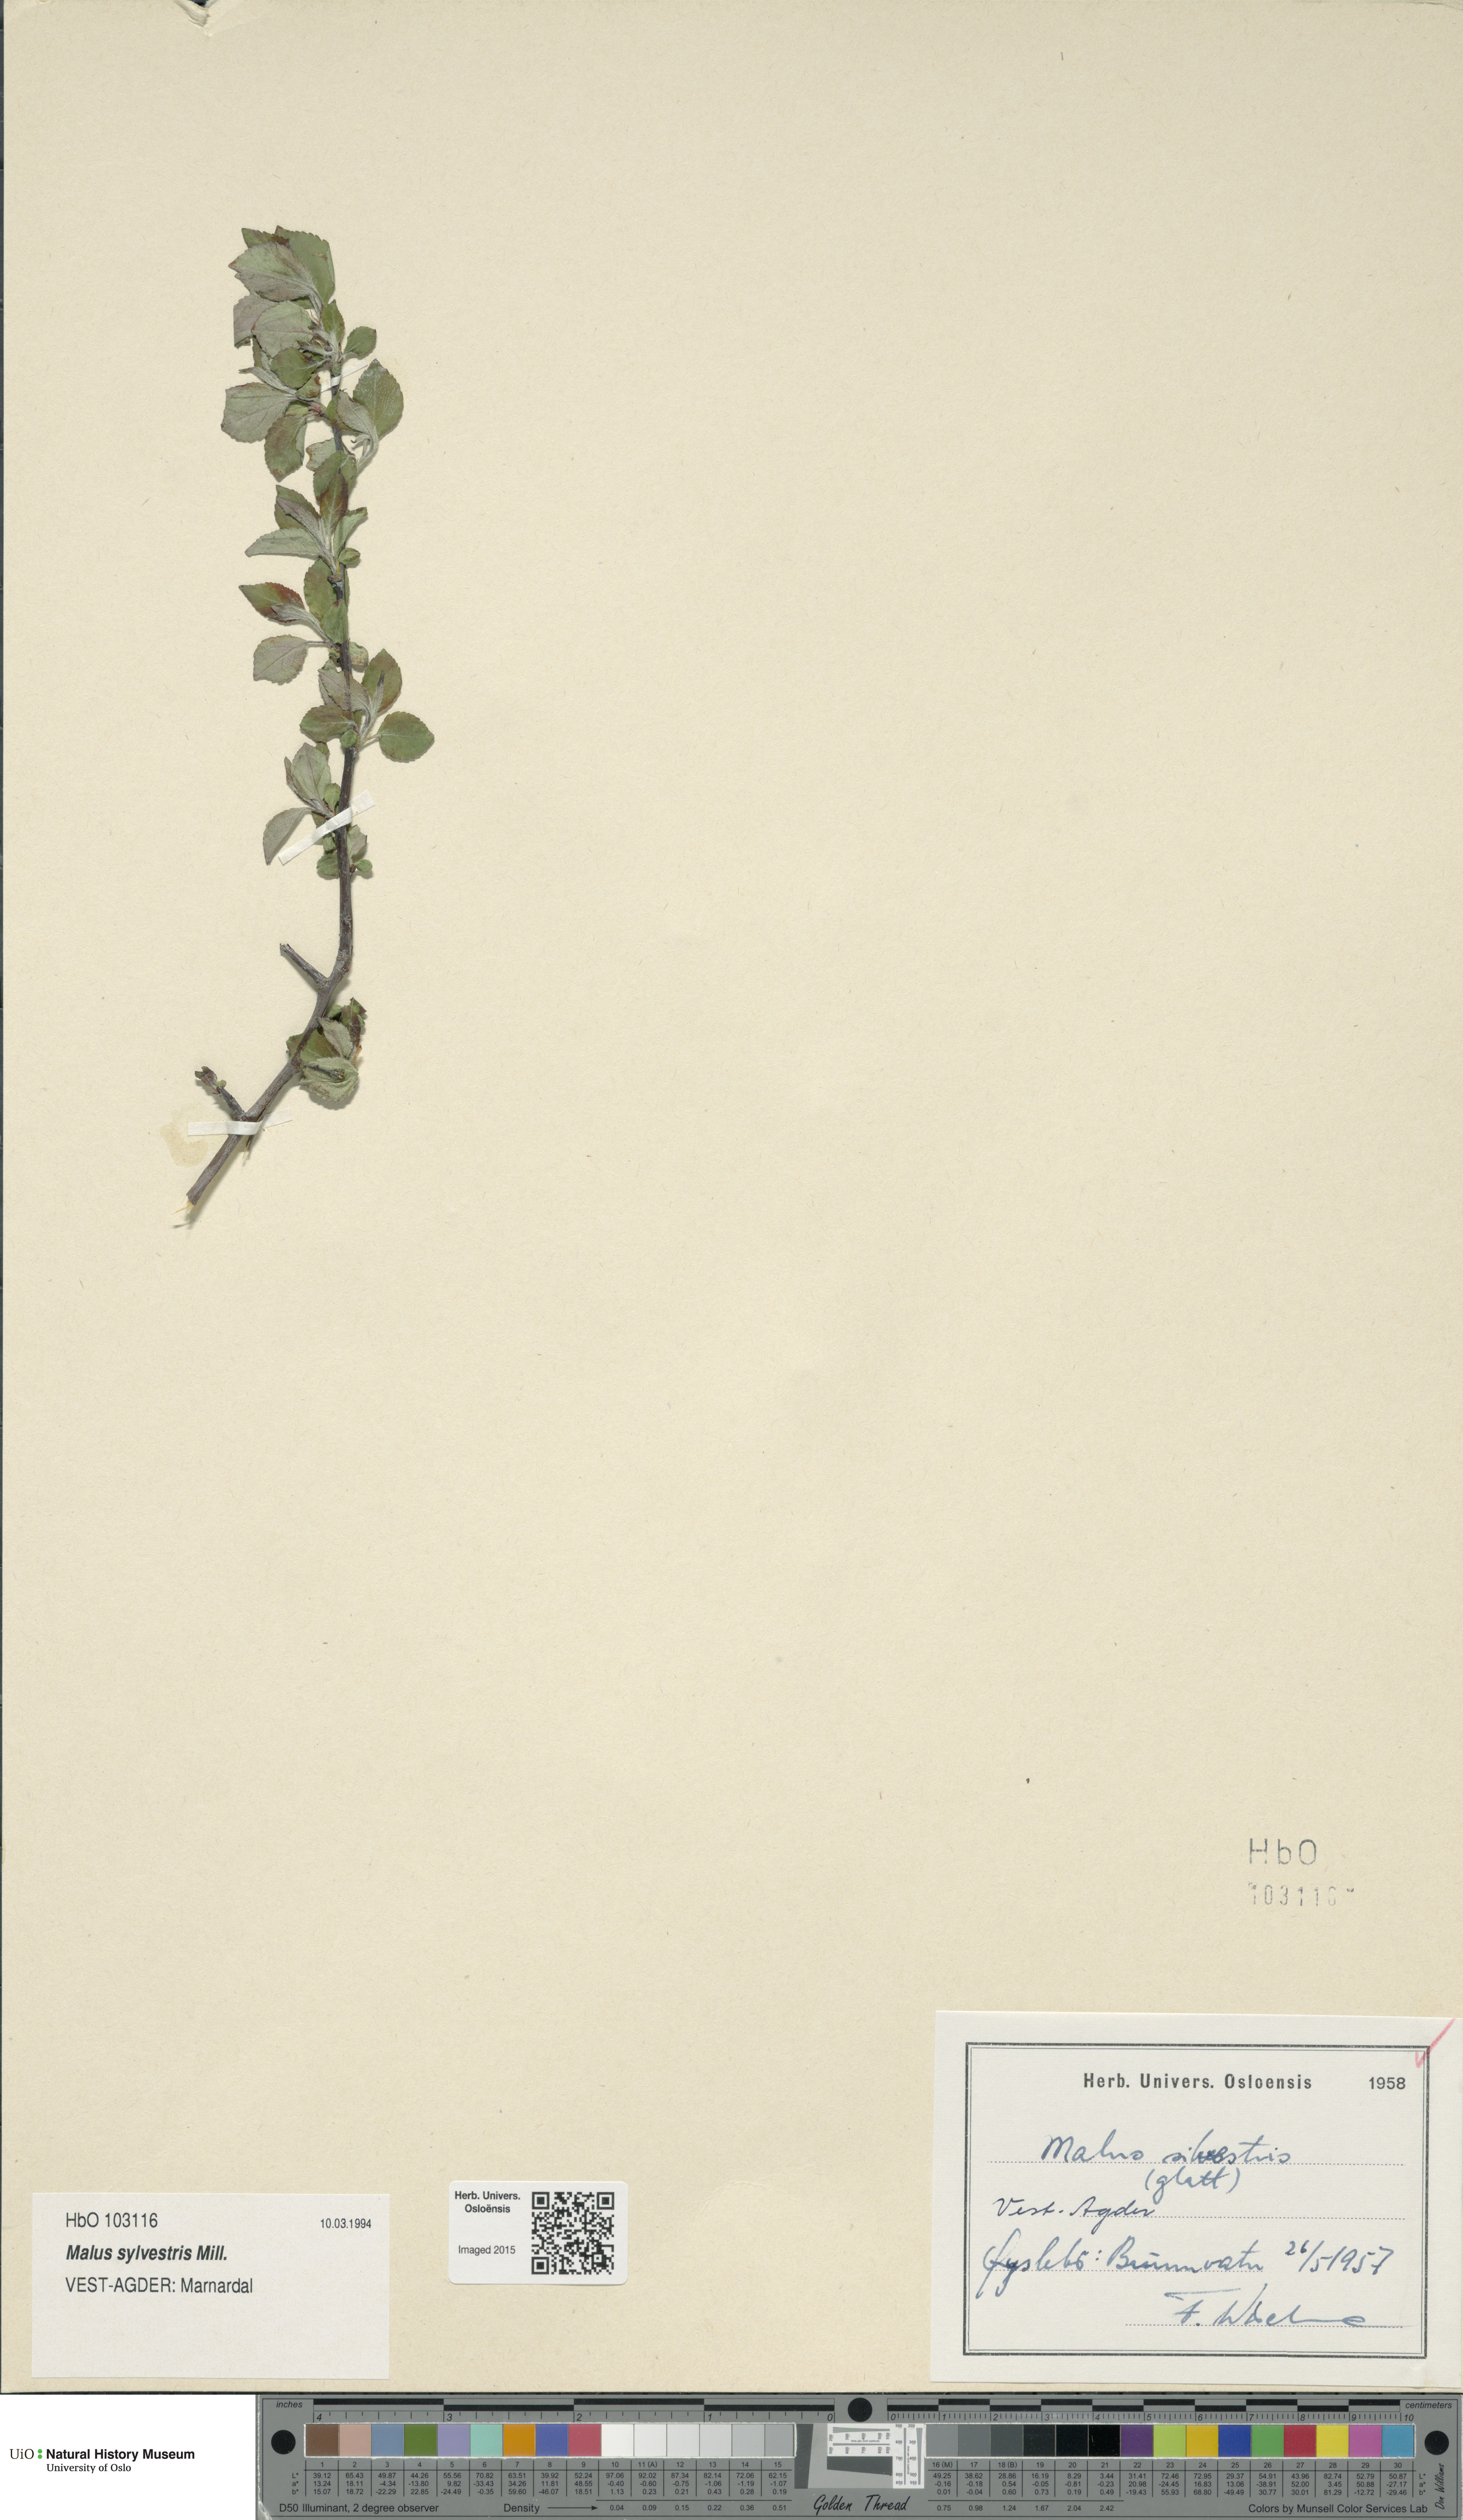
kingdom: Plantae
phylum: Tracheophyta
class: Magnoliopsida
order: Rosales
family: Rosaceae
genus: Malus
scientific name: Malus sylvestris
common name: Crab apple
